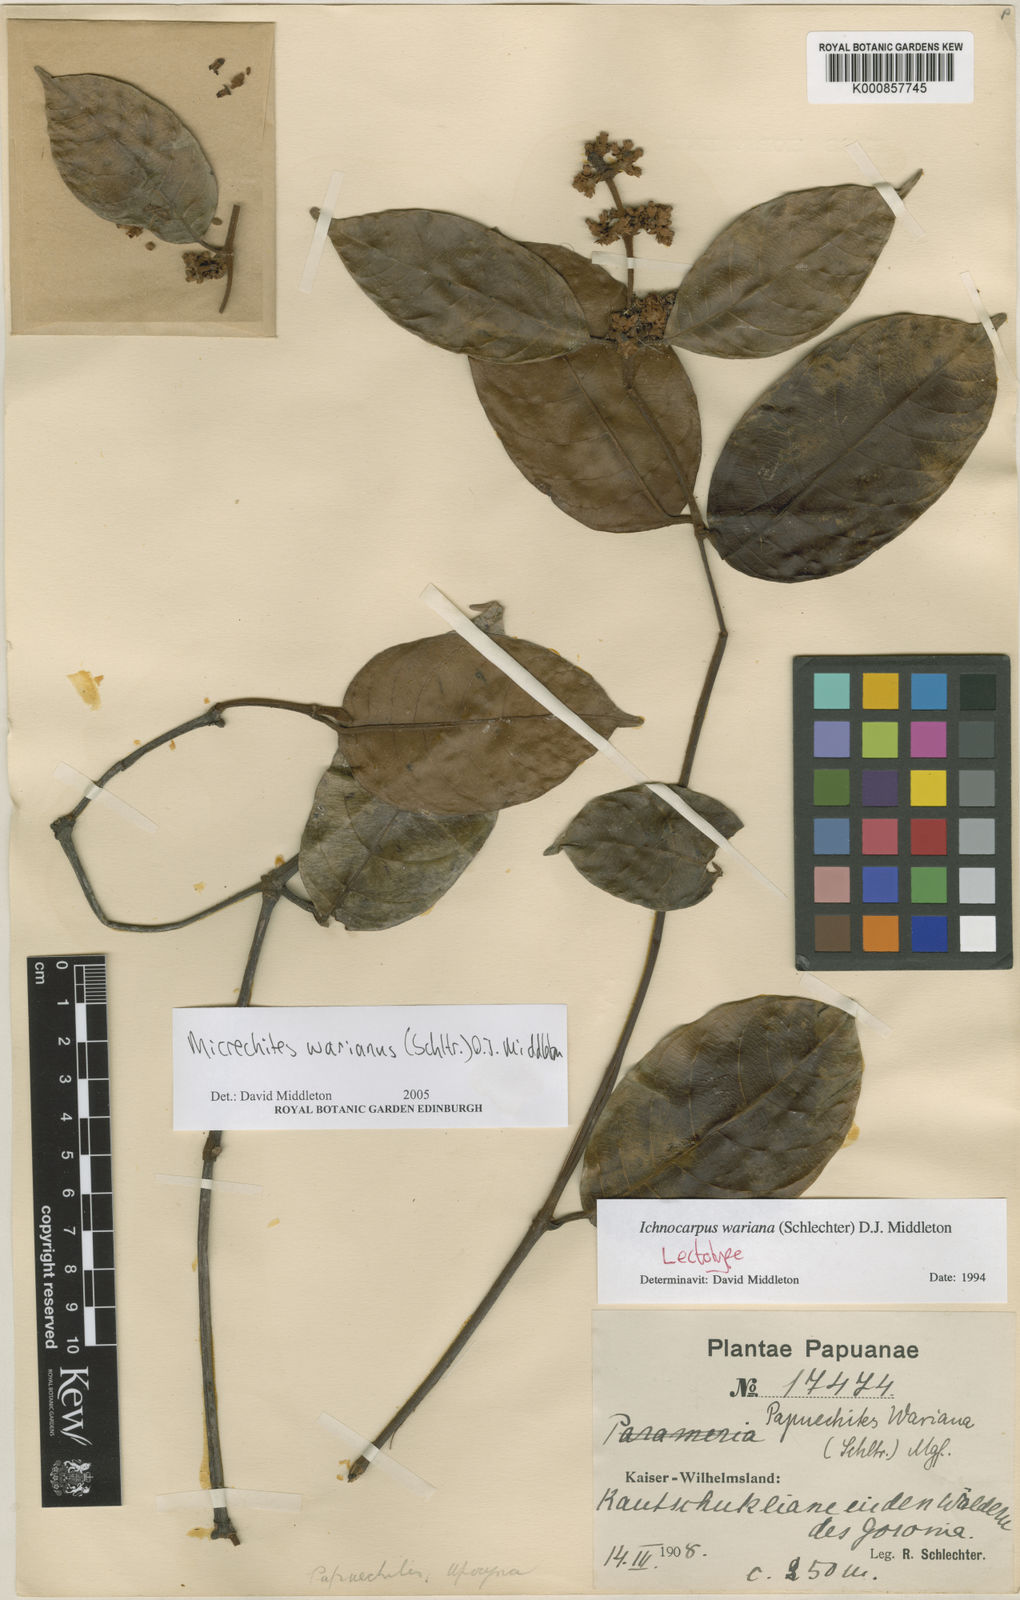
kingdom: Plantae
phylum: Tracheophyta
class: Magnoliopsida
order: Gentianales
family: Apocynaceae
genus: Micrechites
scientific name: Micrechites warianus
